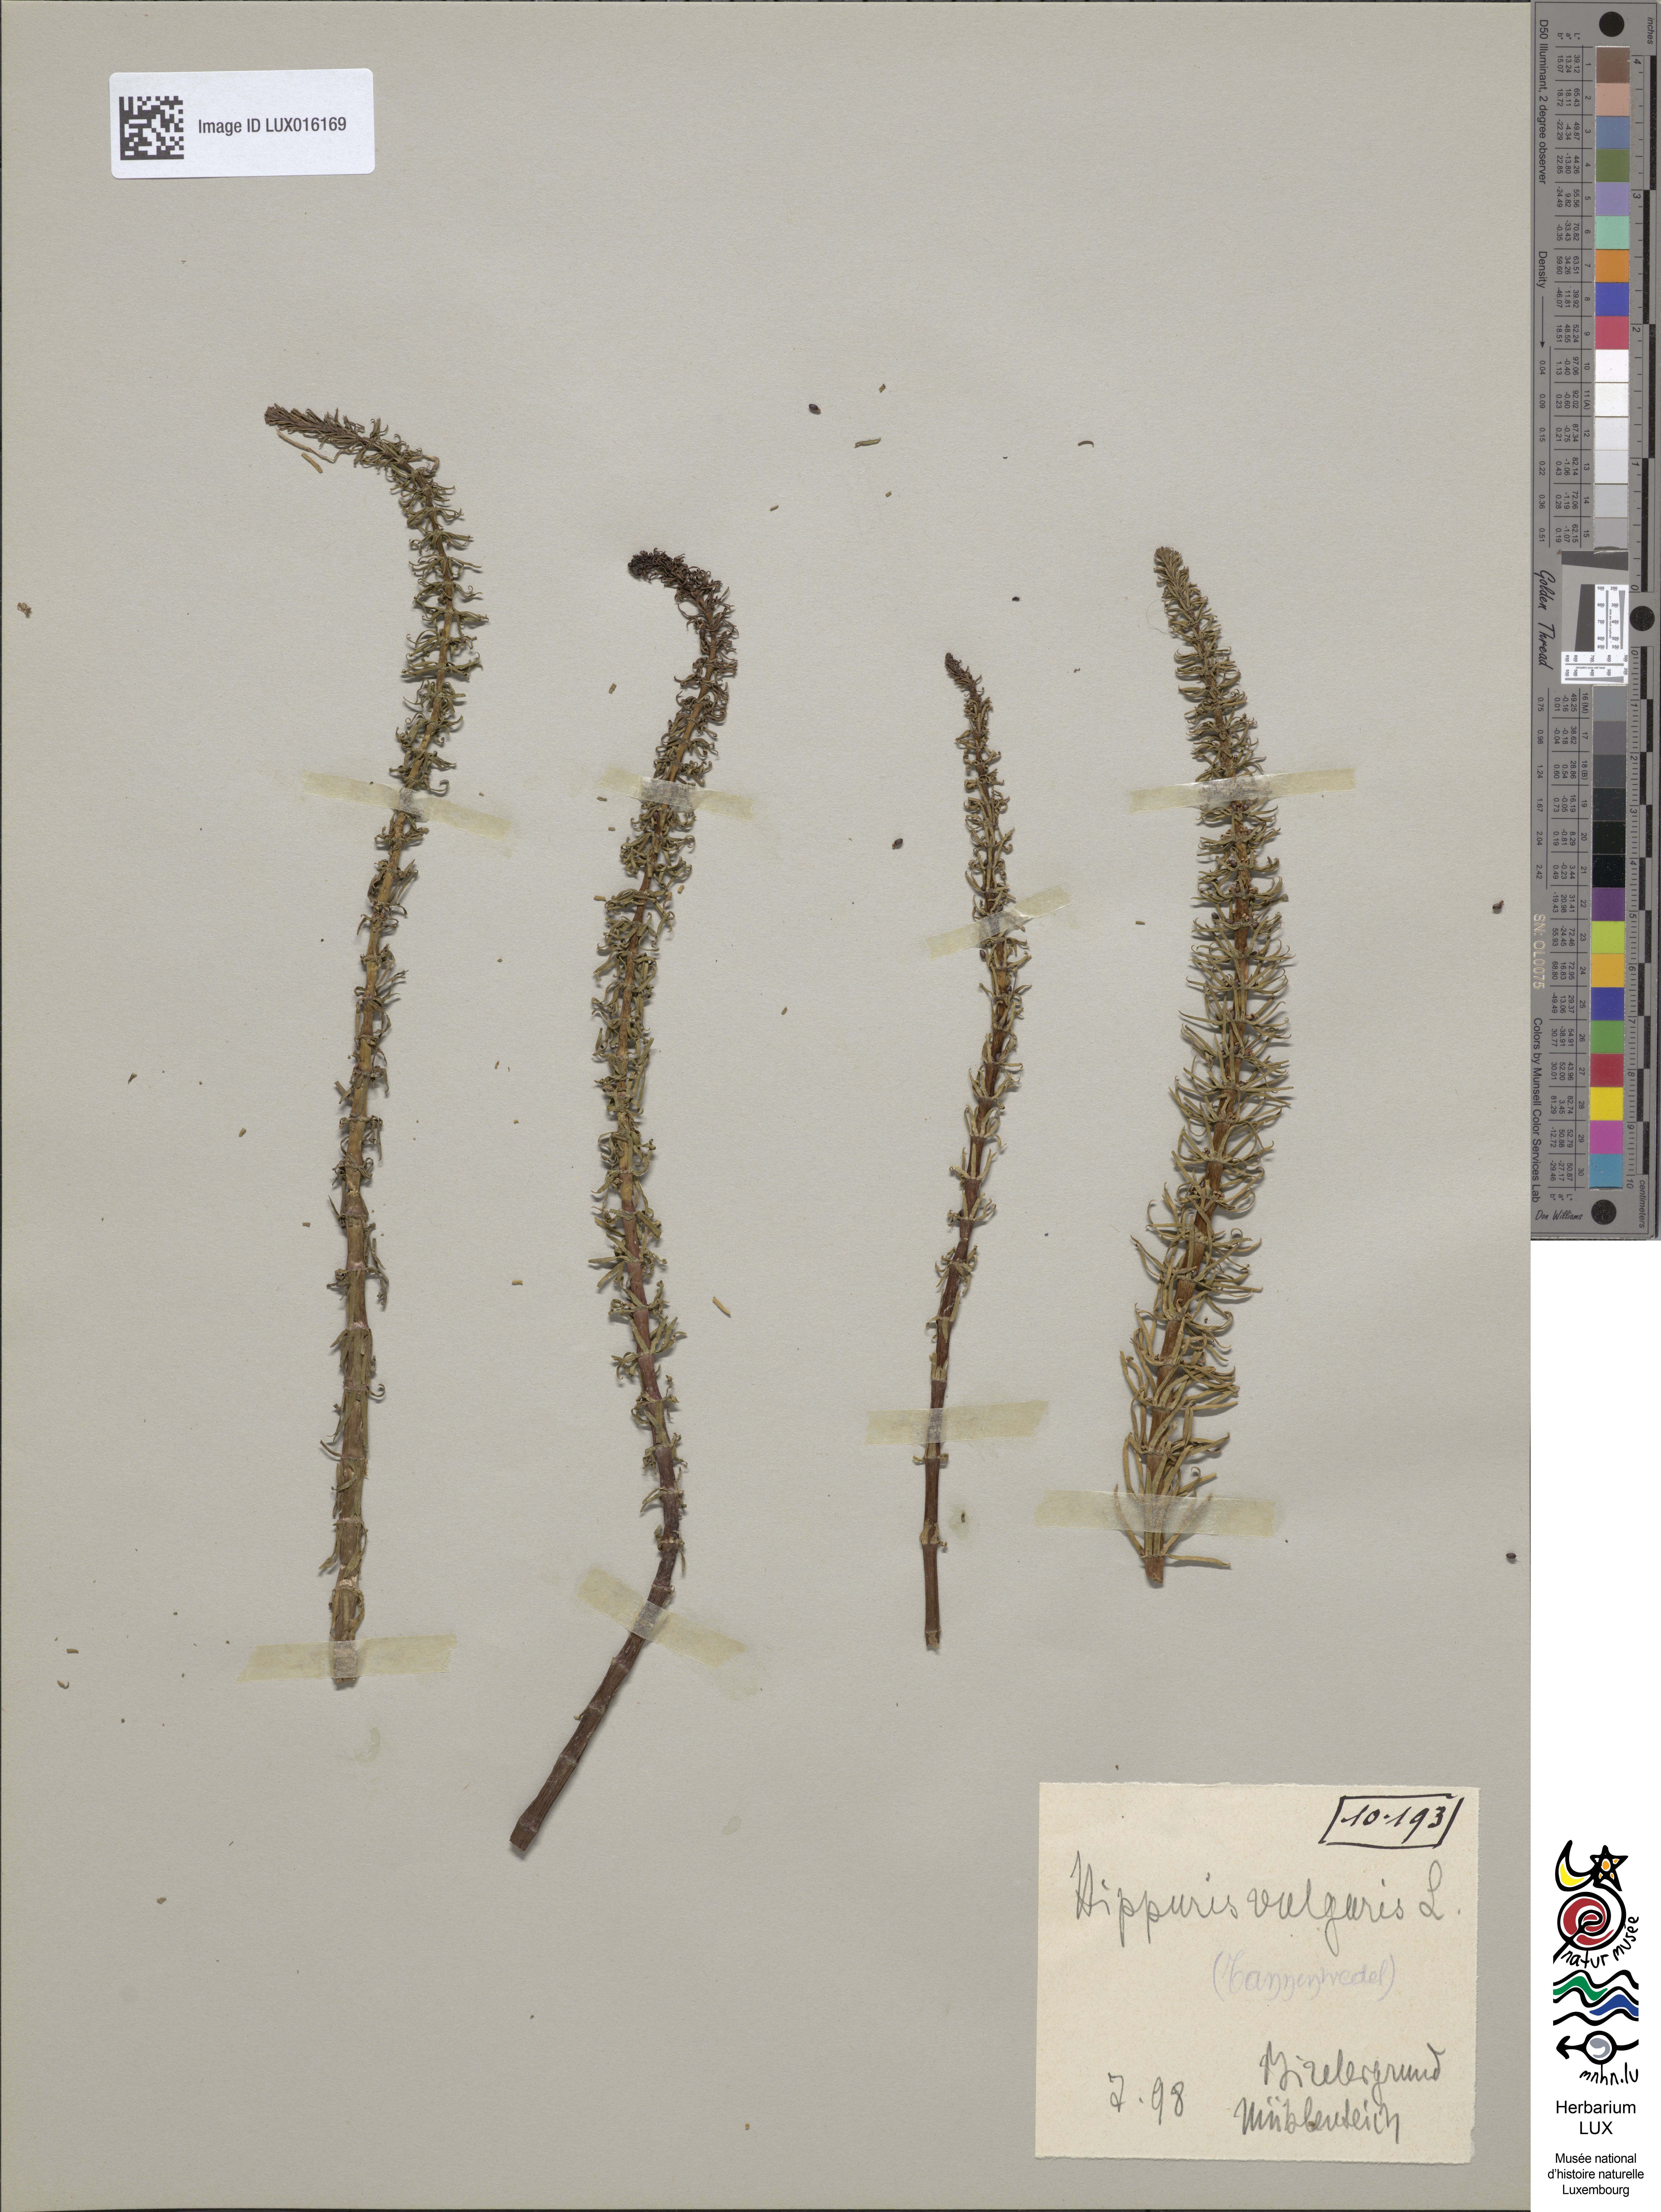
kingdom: Plantae
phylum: Tracheophyta
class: Magnoliopsida
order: Lamiales
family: Plantaginaceae
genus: Hippuris
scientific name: Hippuris vulgaris
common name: Mare's-tail
